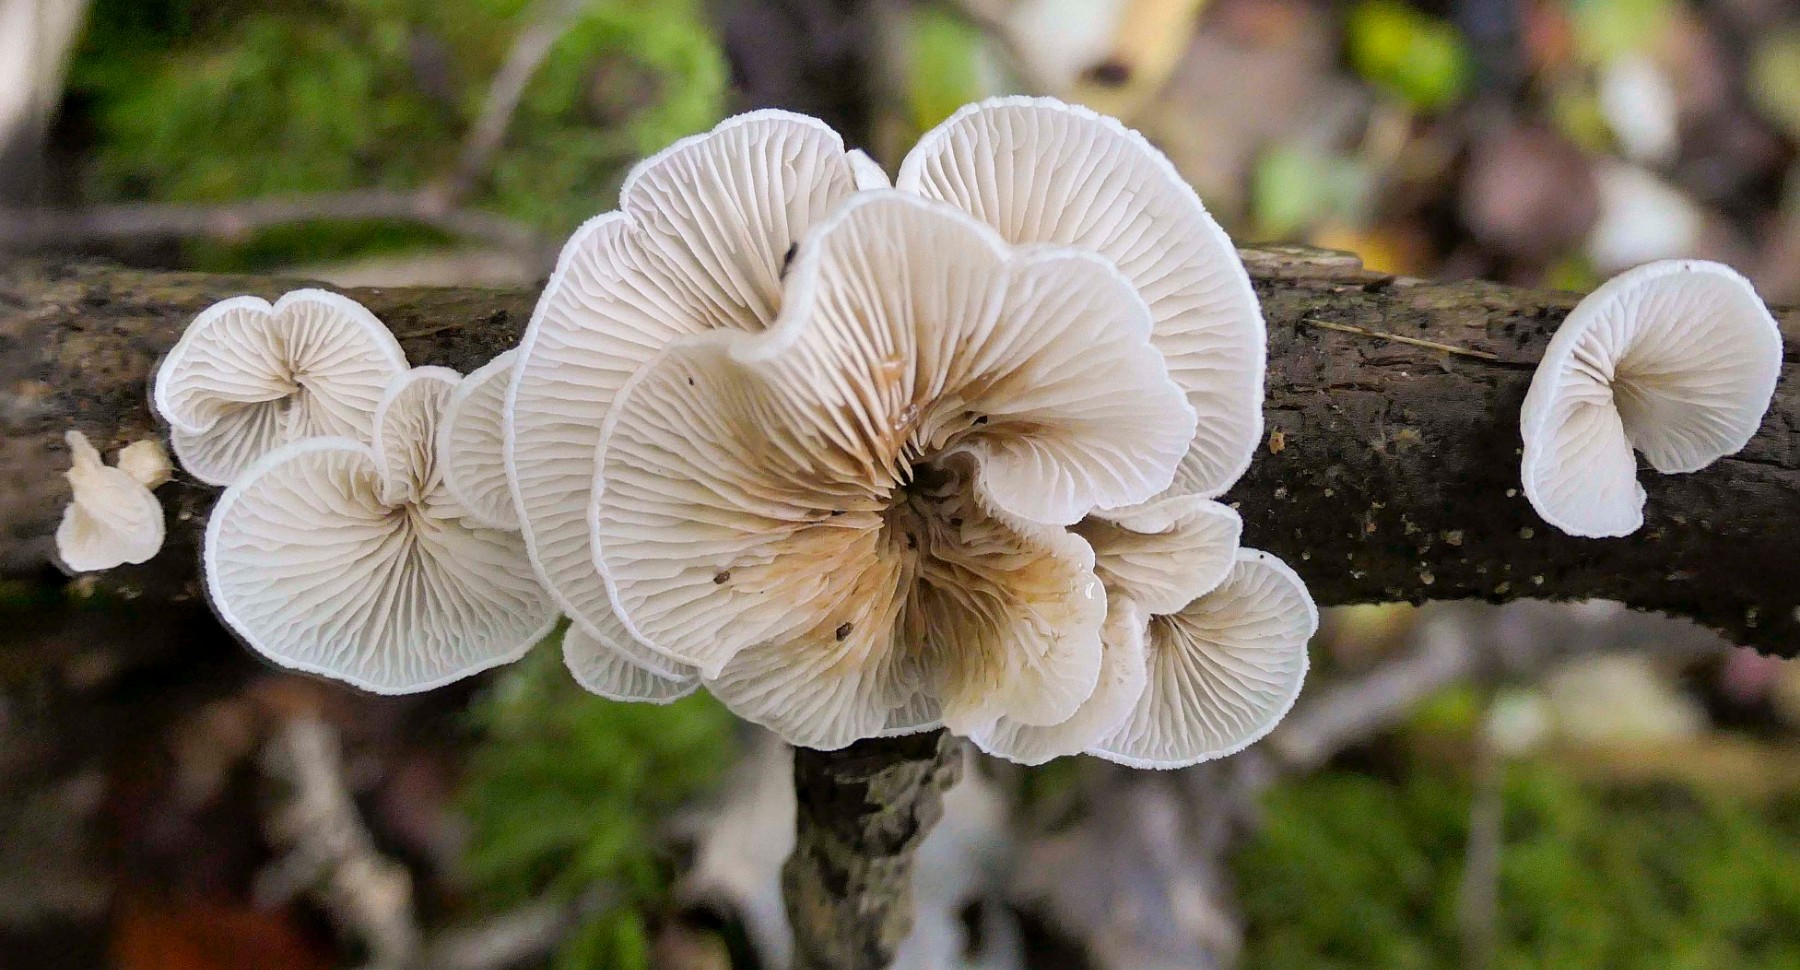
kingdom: Fungi
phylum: Basidiomycota
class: Agaricomycetes
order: Agaricales
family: Crepidotaceae
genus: Crepidotus
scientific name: Crepidotus mollis
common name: blød muslingesvamp
